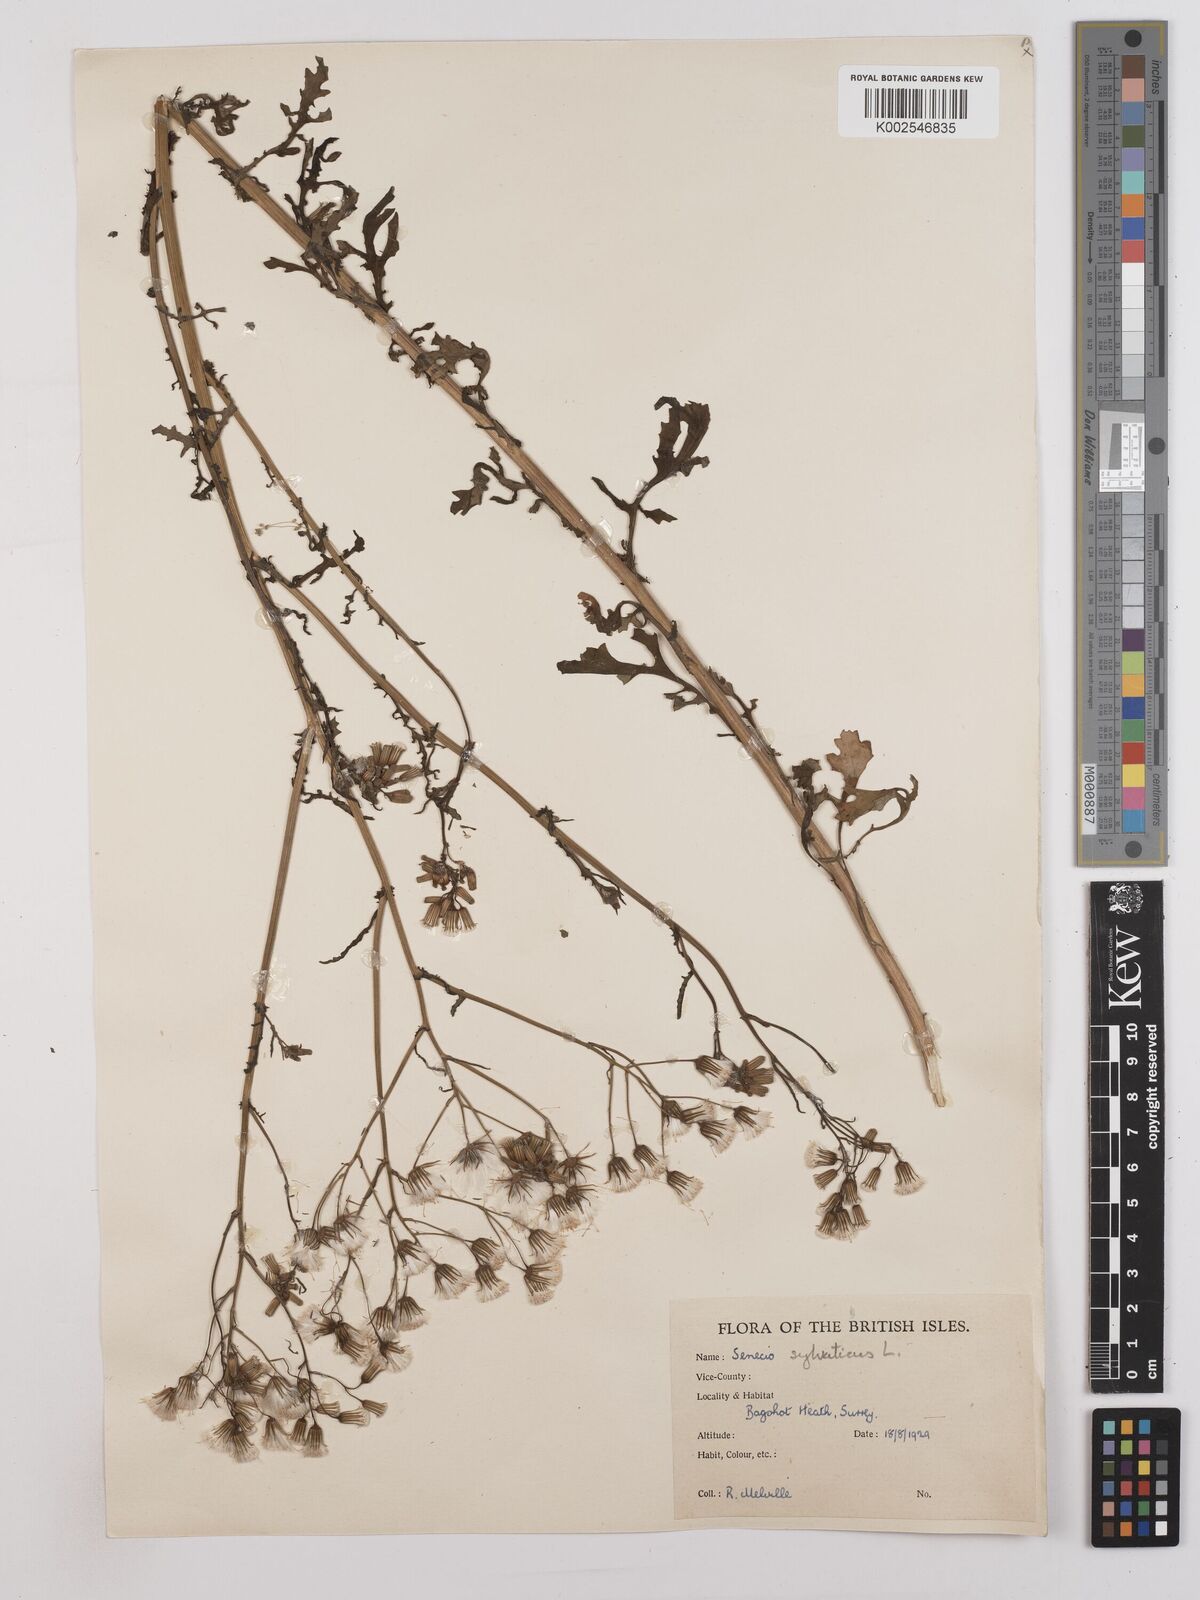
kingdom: Plantae
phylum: Tracheophyta
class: Magnoliopsida
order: Asterales
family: Asteraceae
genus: Senecio
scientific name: Senecio sylvaticus
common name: Woodland ragwort
